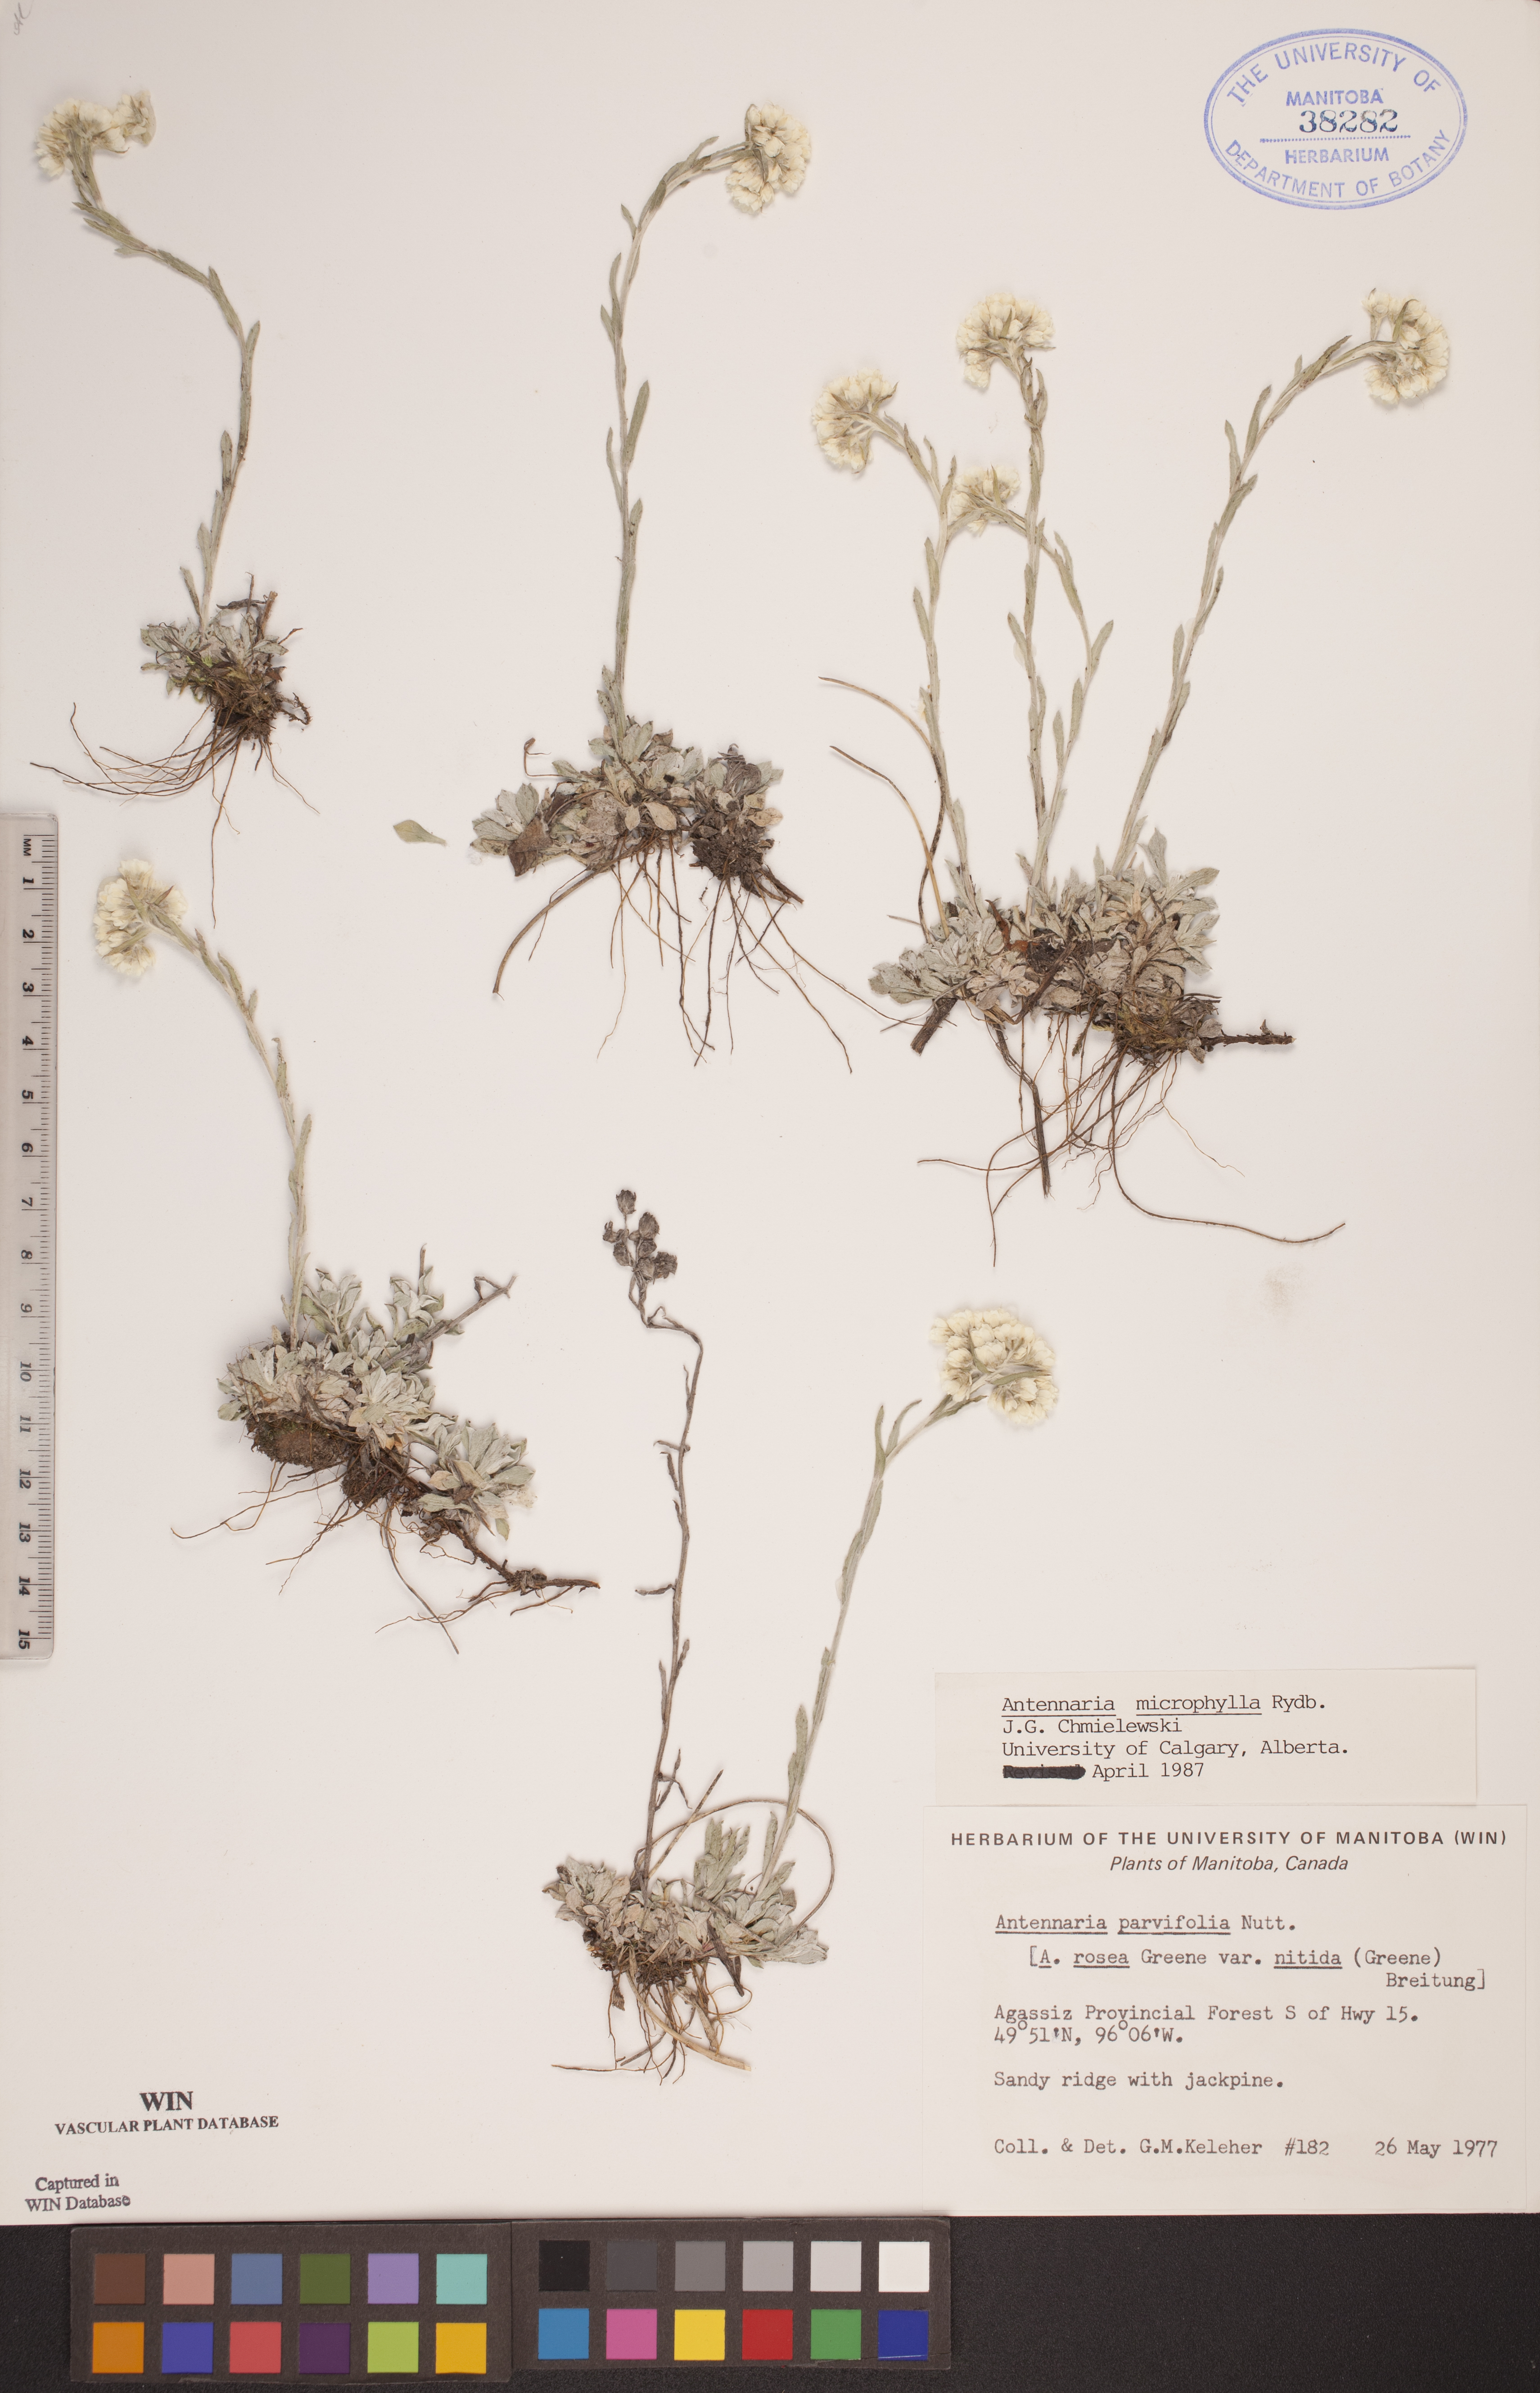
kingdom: Plantae
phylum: Tracheophyta
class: Magnoliopsida
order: Asterales
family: Asteraceae
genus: Antennaria
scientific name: Antennaria microphylla
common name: Littleleaf pussytoes
